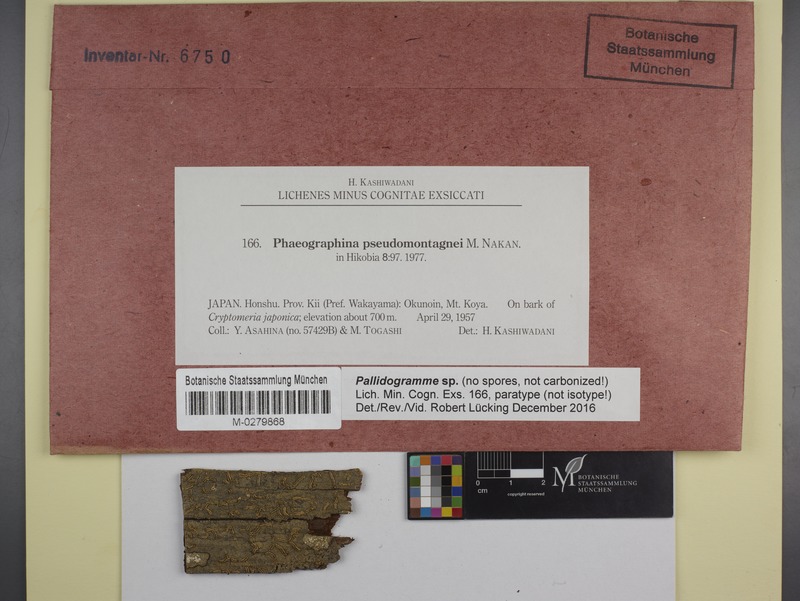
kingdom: Fungi
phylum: Ascomycota
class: Lecanoromycetes
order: Ostropales
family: Graphidaceae
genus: Pallidogramme
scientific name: Pallidogramme
